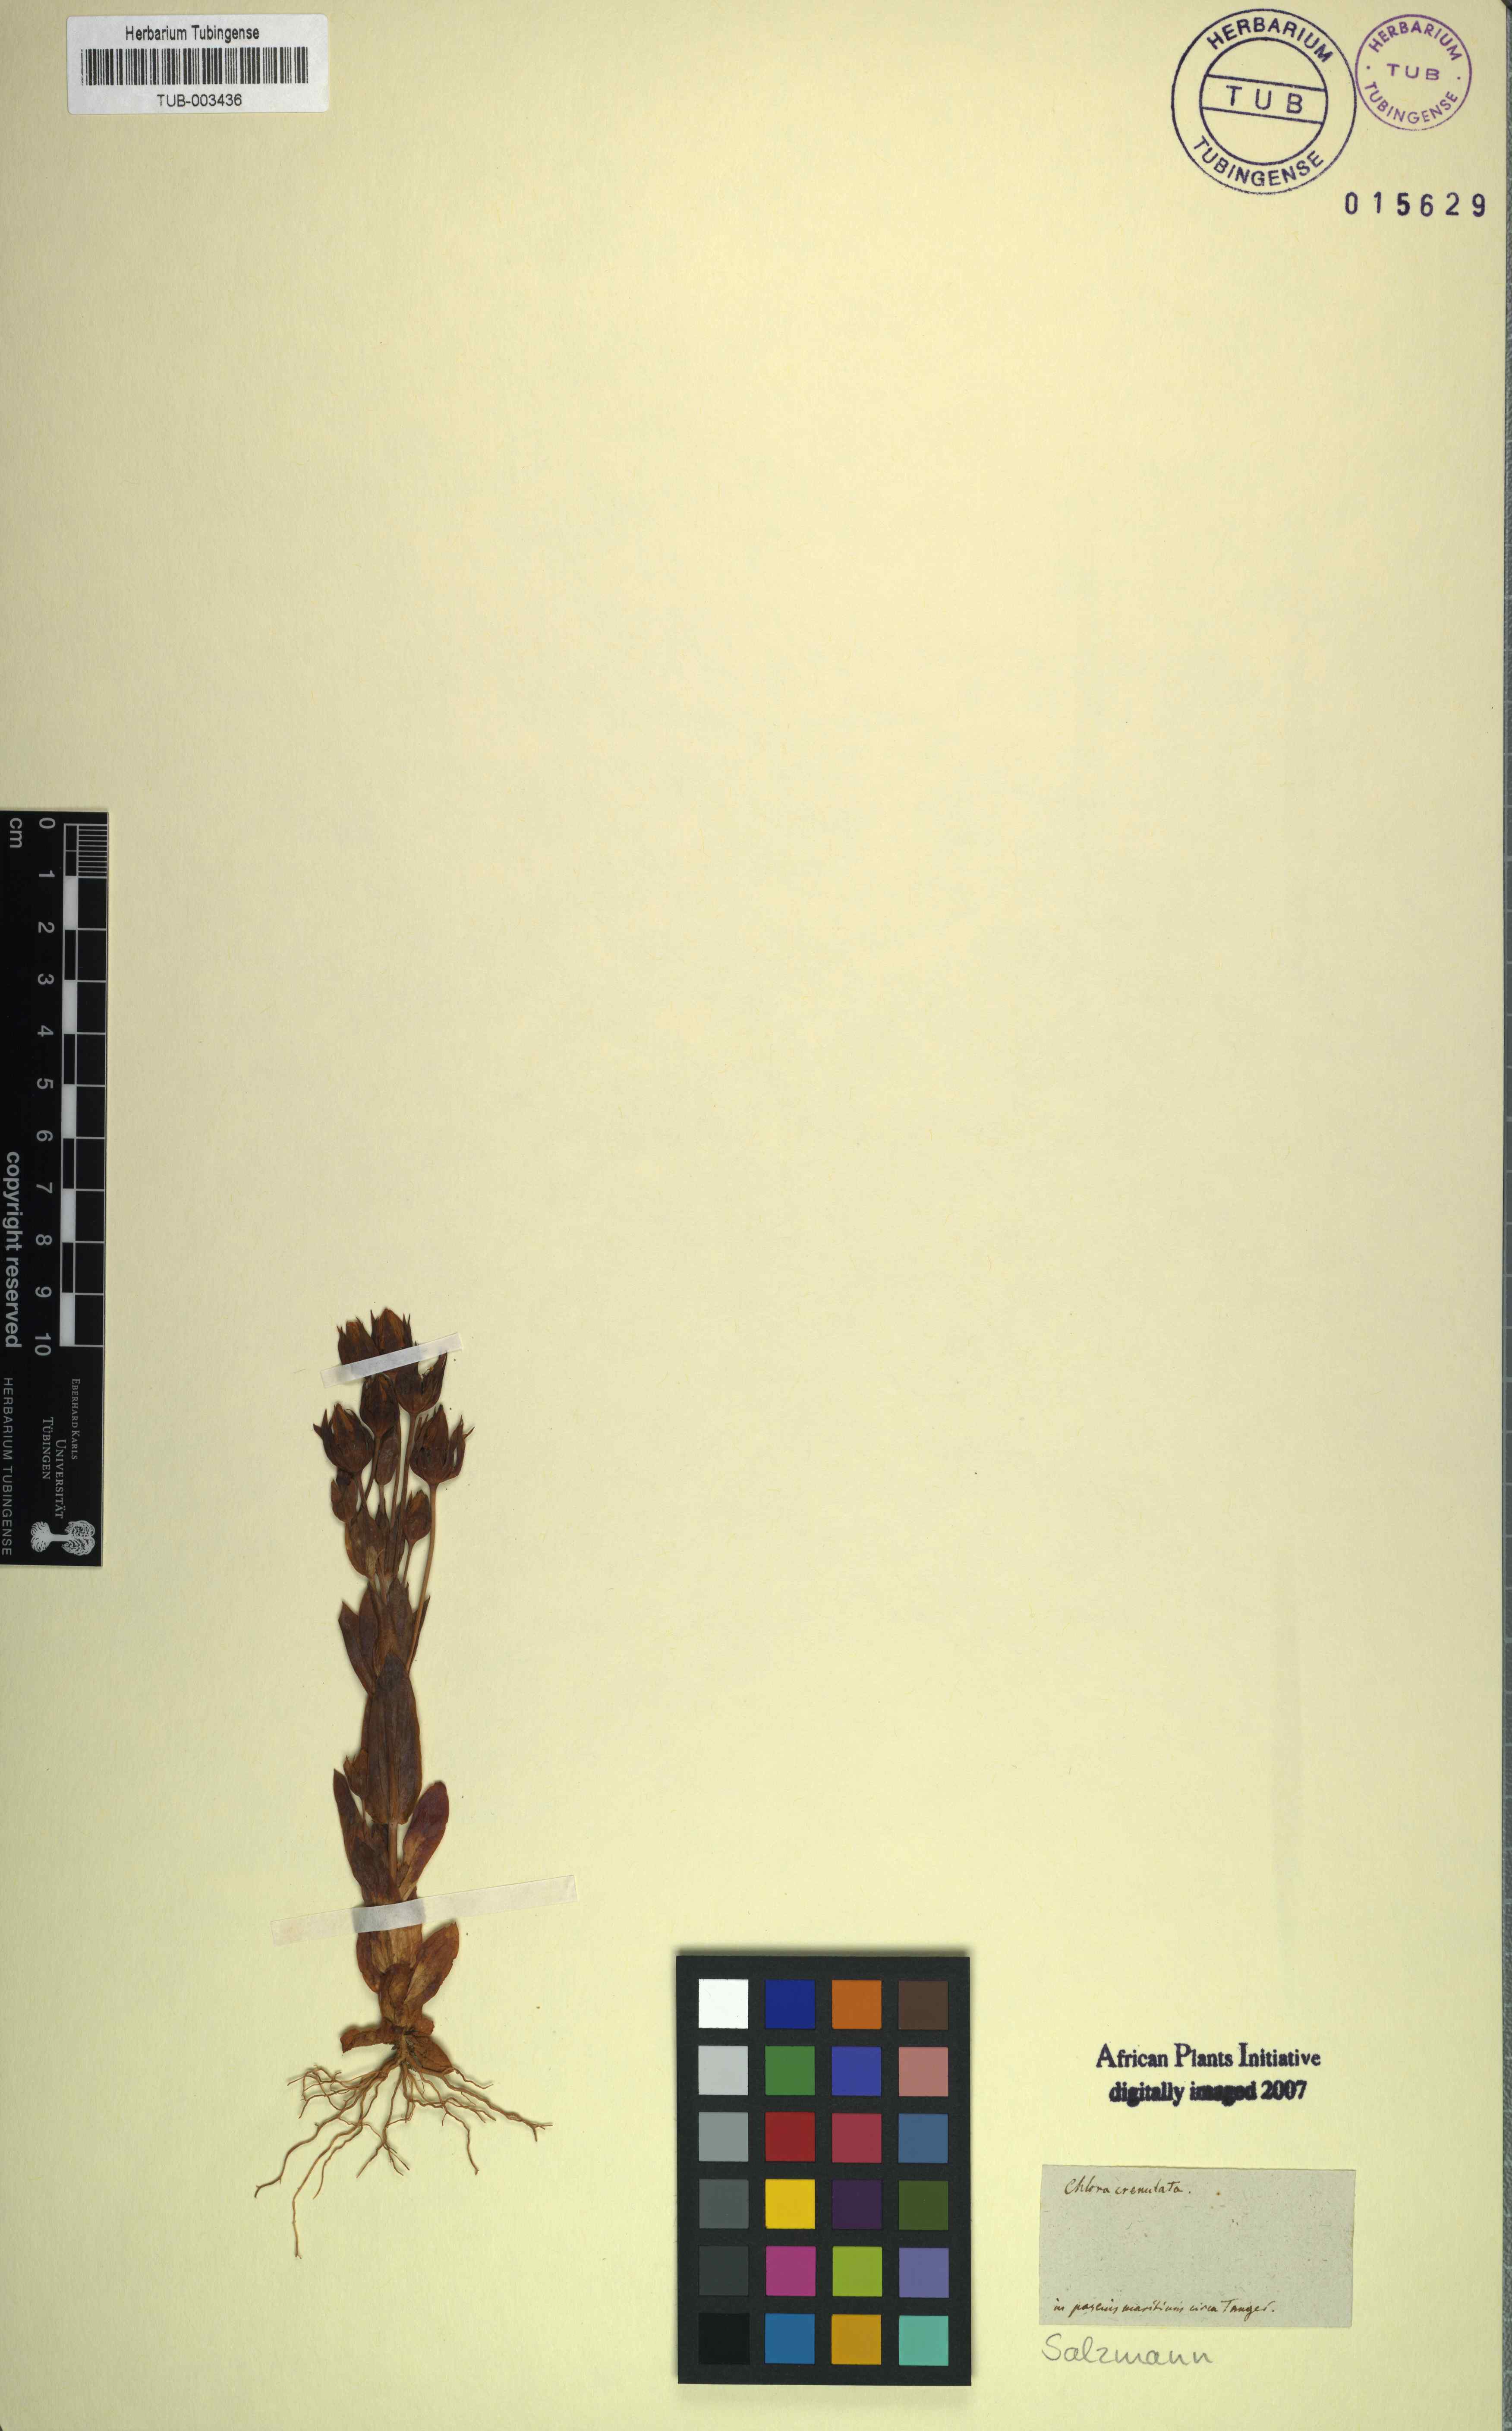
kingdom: Plantae
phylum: Tracheophyta
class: Magnoliopsida
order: Gentianales
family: Gentianaceae
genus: Blackstonia
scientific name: Blackstonia perfoliata
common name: Yellow-wort
